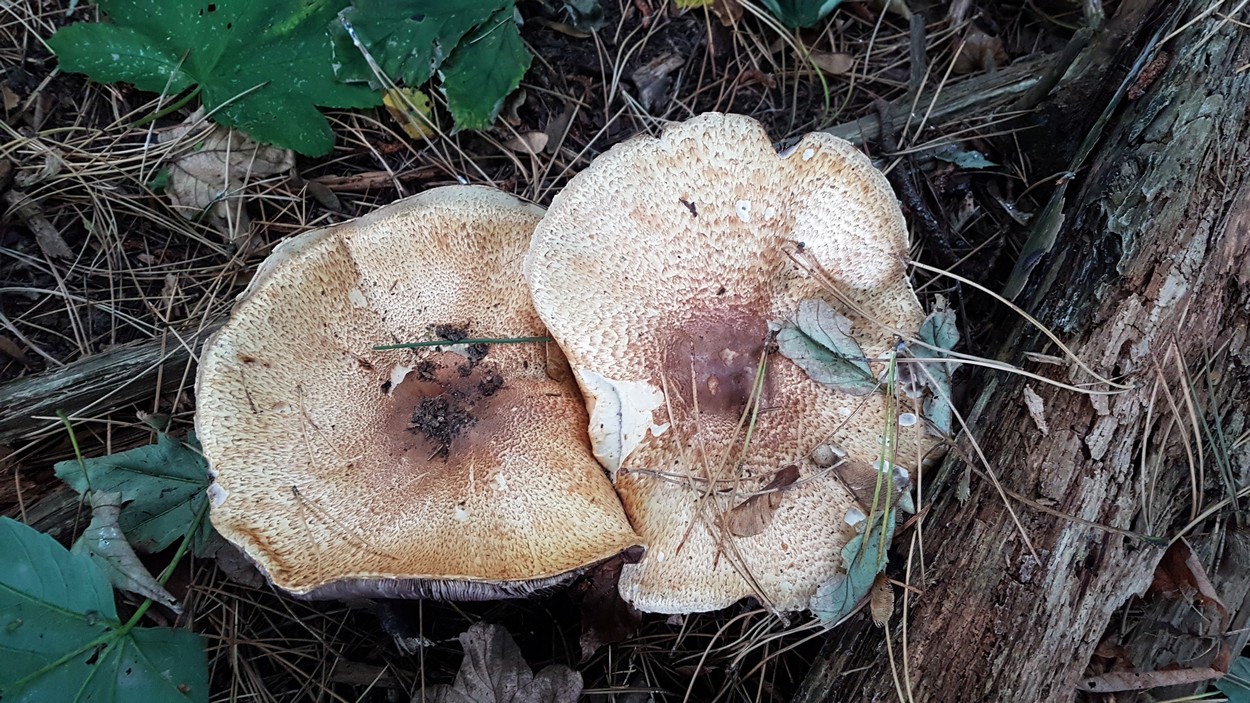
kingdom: Fungi
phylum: Basidiomycota
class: Agaricomycetes
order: Agaricales
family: Agaricaceae
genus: Agaricus
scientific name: Agaricus augustus
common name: prægtig champignon
